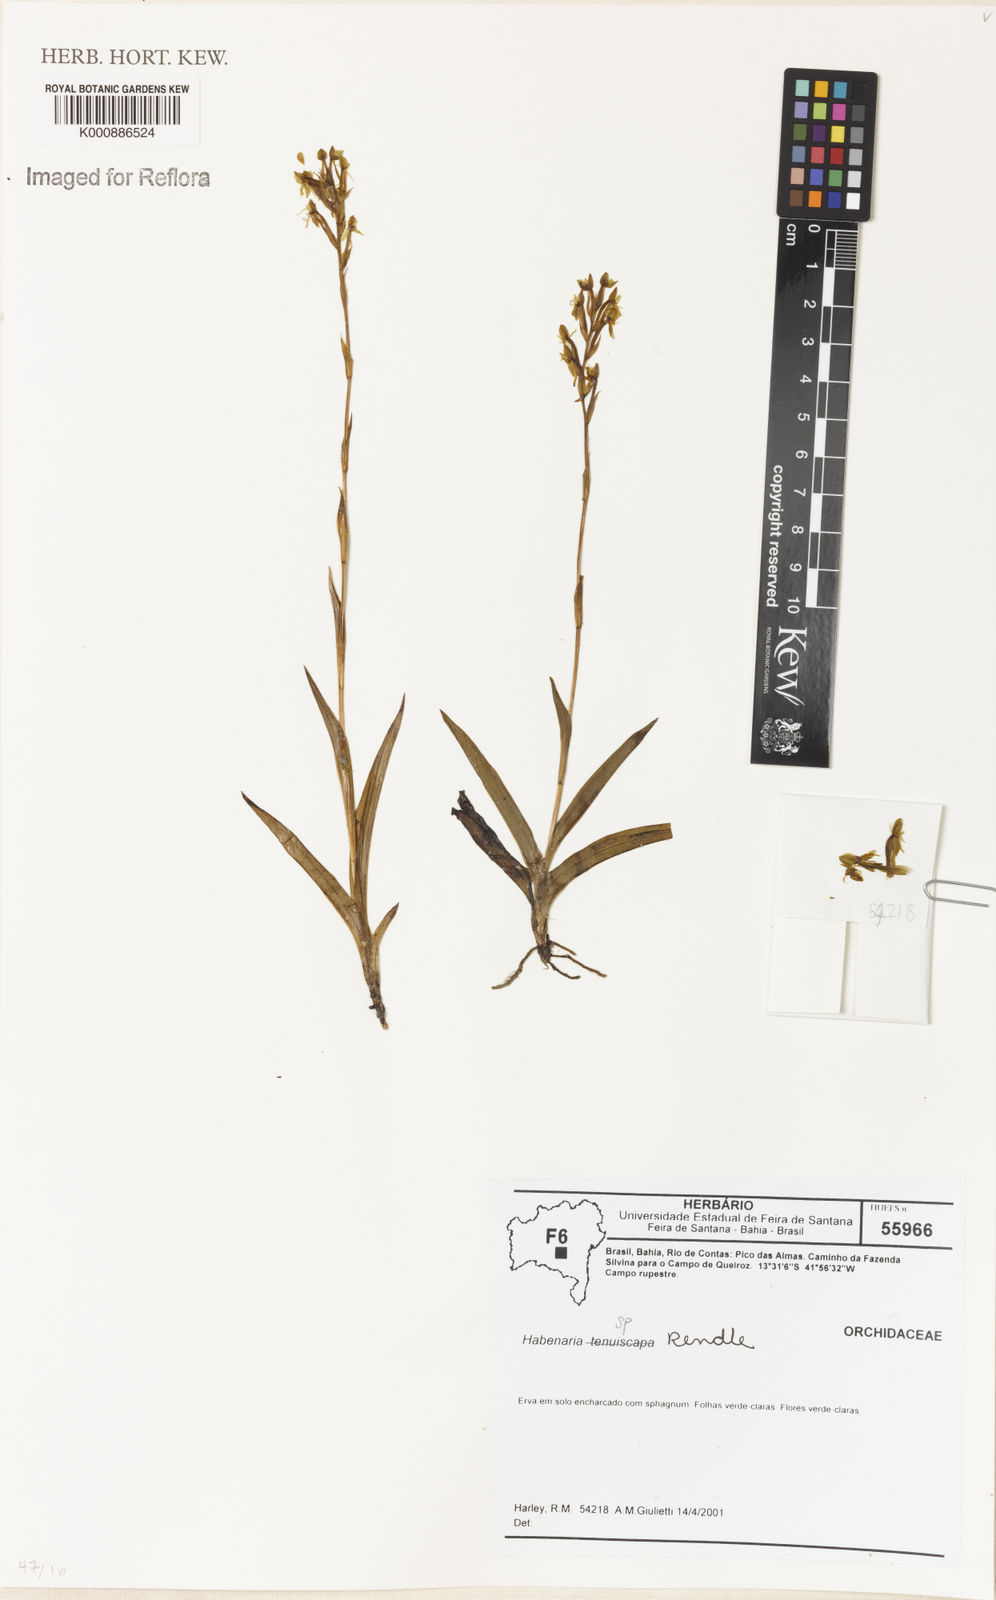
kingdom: Plantae
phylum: Tracheophyta
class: Liliopsida
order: Asparagales
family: Orchidaceae
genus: Habenaria
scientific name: Habenaria
